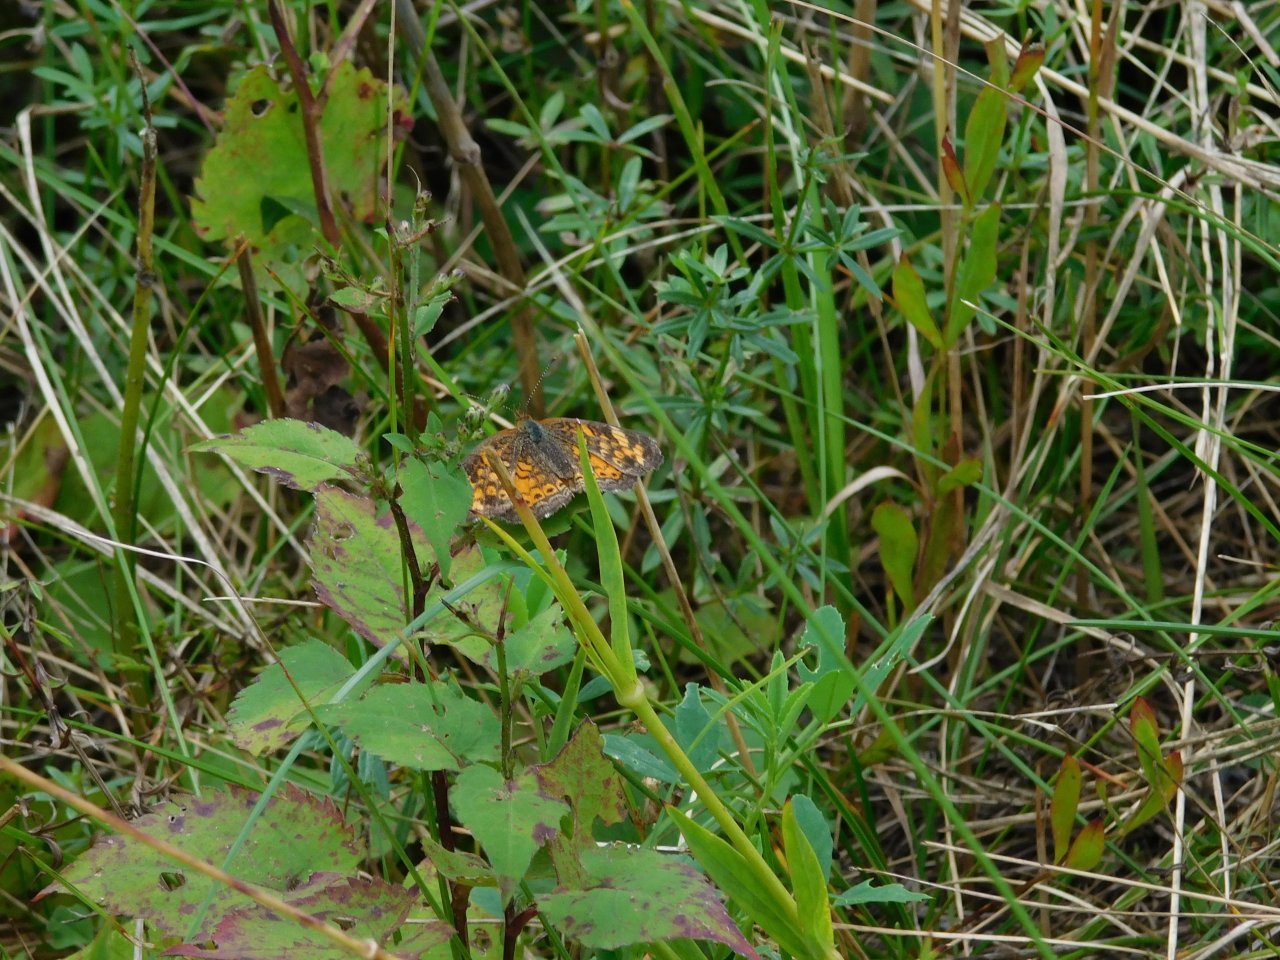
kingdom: Animalia
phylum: Arthropoda
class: Insecta
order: Lepidoptera
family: Nymphalidae
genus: Phyciodes
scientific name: Phyciodes tharos
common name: Pearl Crescent
